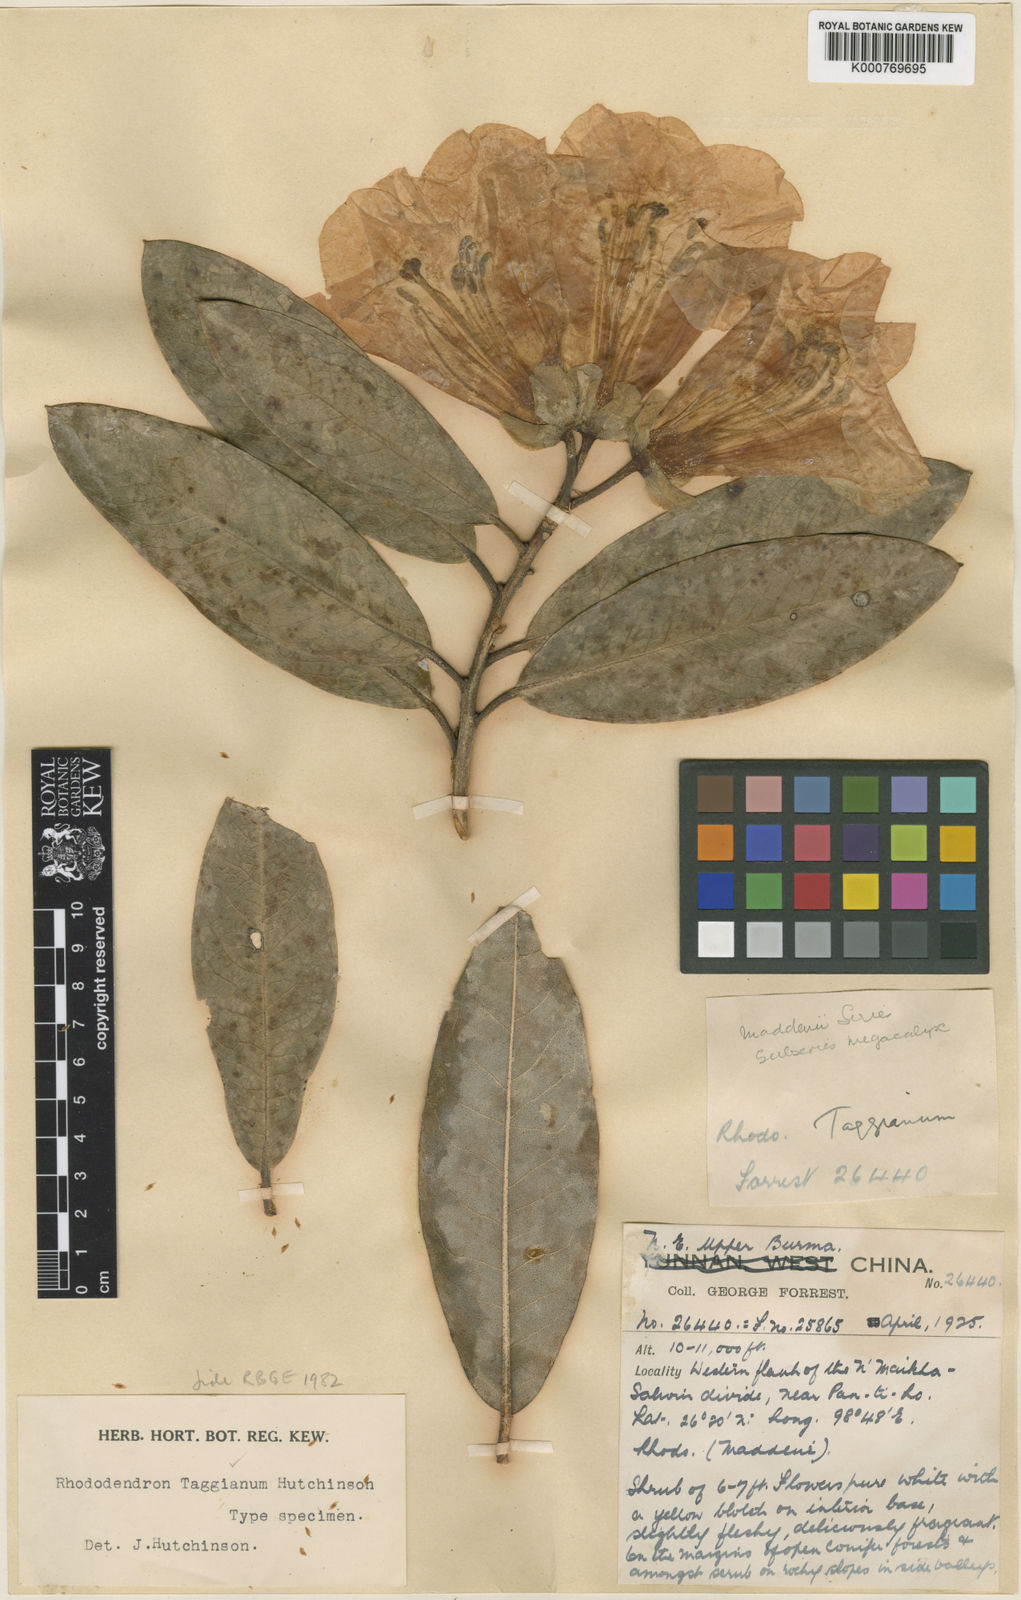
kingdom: Plantae
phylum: Tracheophyta
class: Magnoliopsida
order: Ericales
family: Ericaceae
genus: Rhododendron
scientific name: Rhododendron taggianum
